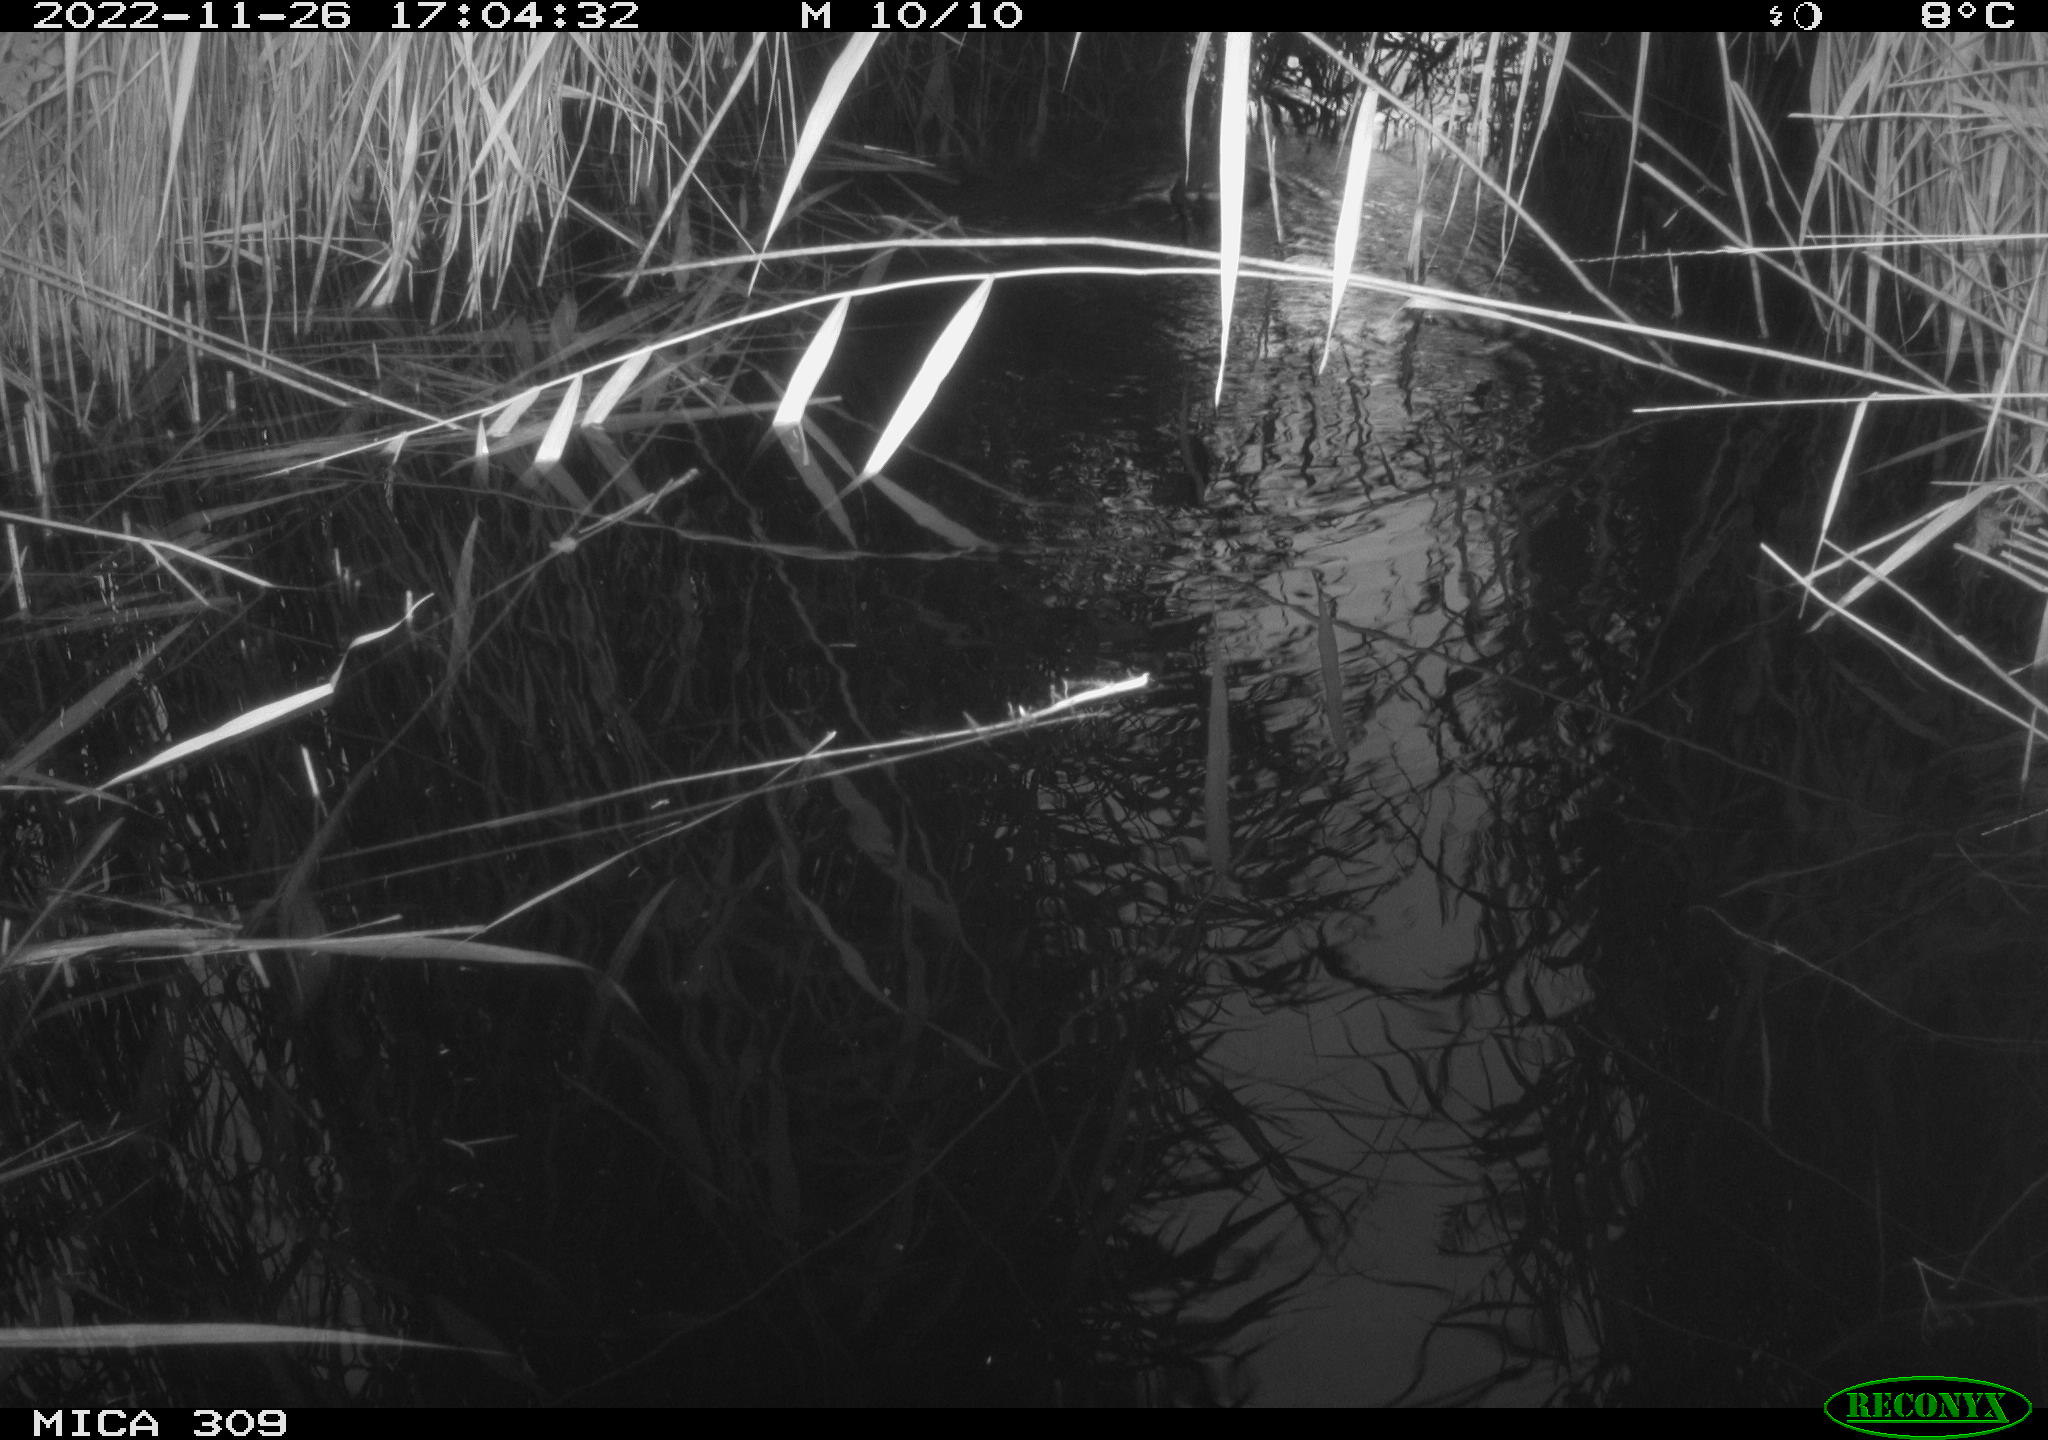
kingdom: Animalia
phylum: Chordata
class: Aves
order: Gruiformes
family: Rallidae
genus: Gallinula
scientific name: Gallinula chloropus
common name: Common moorhen
